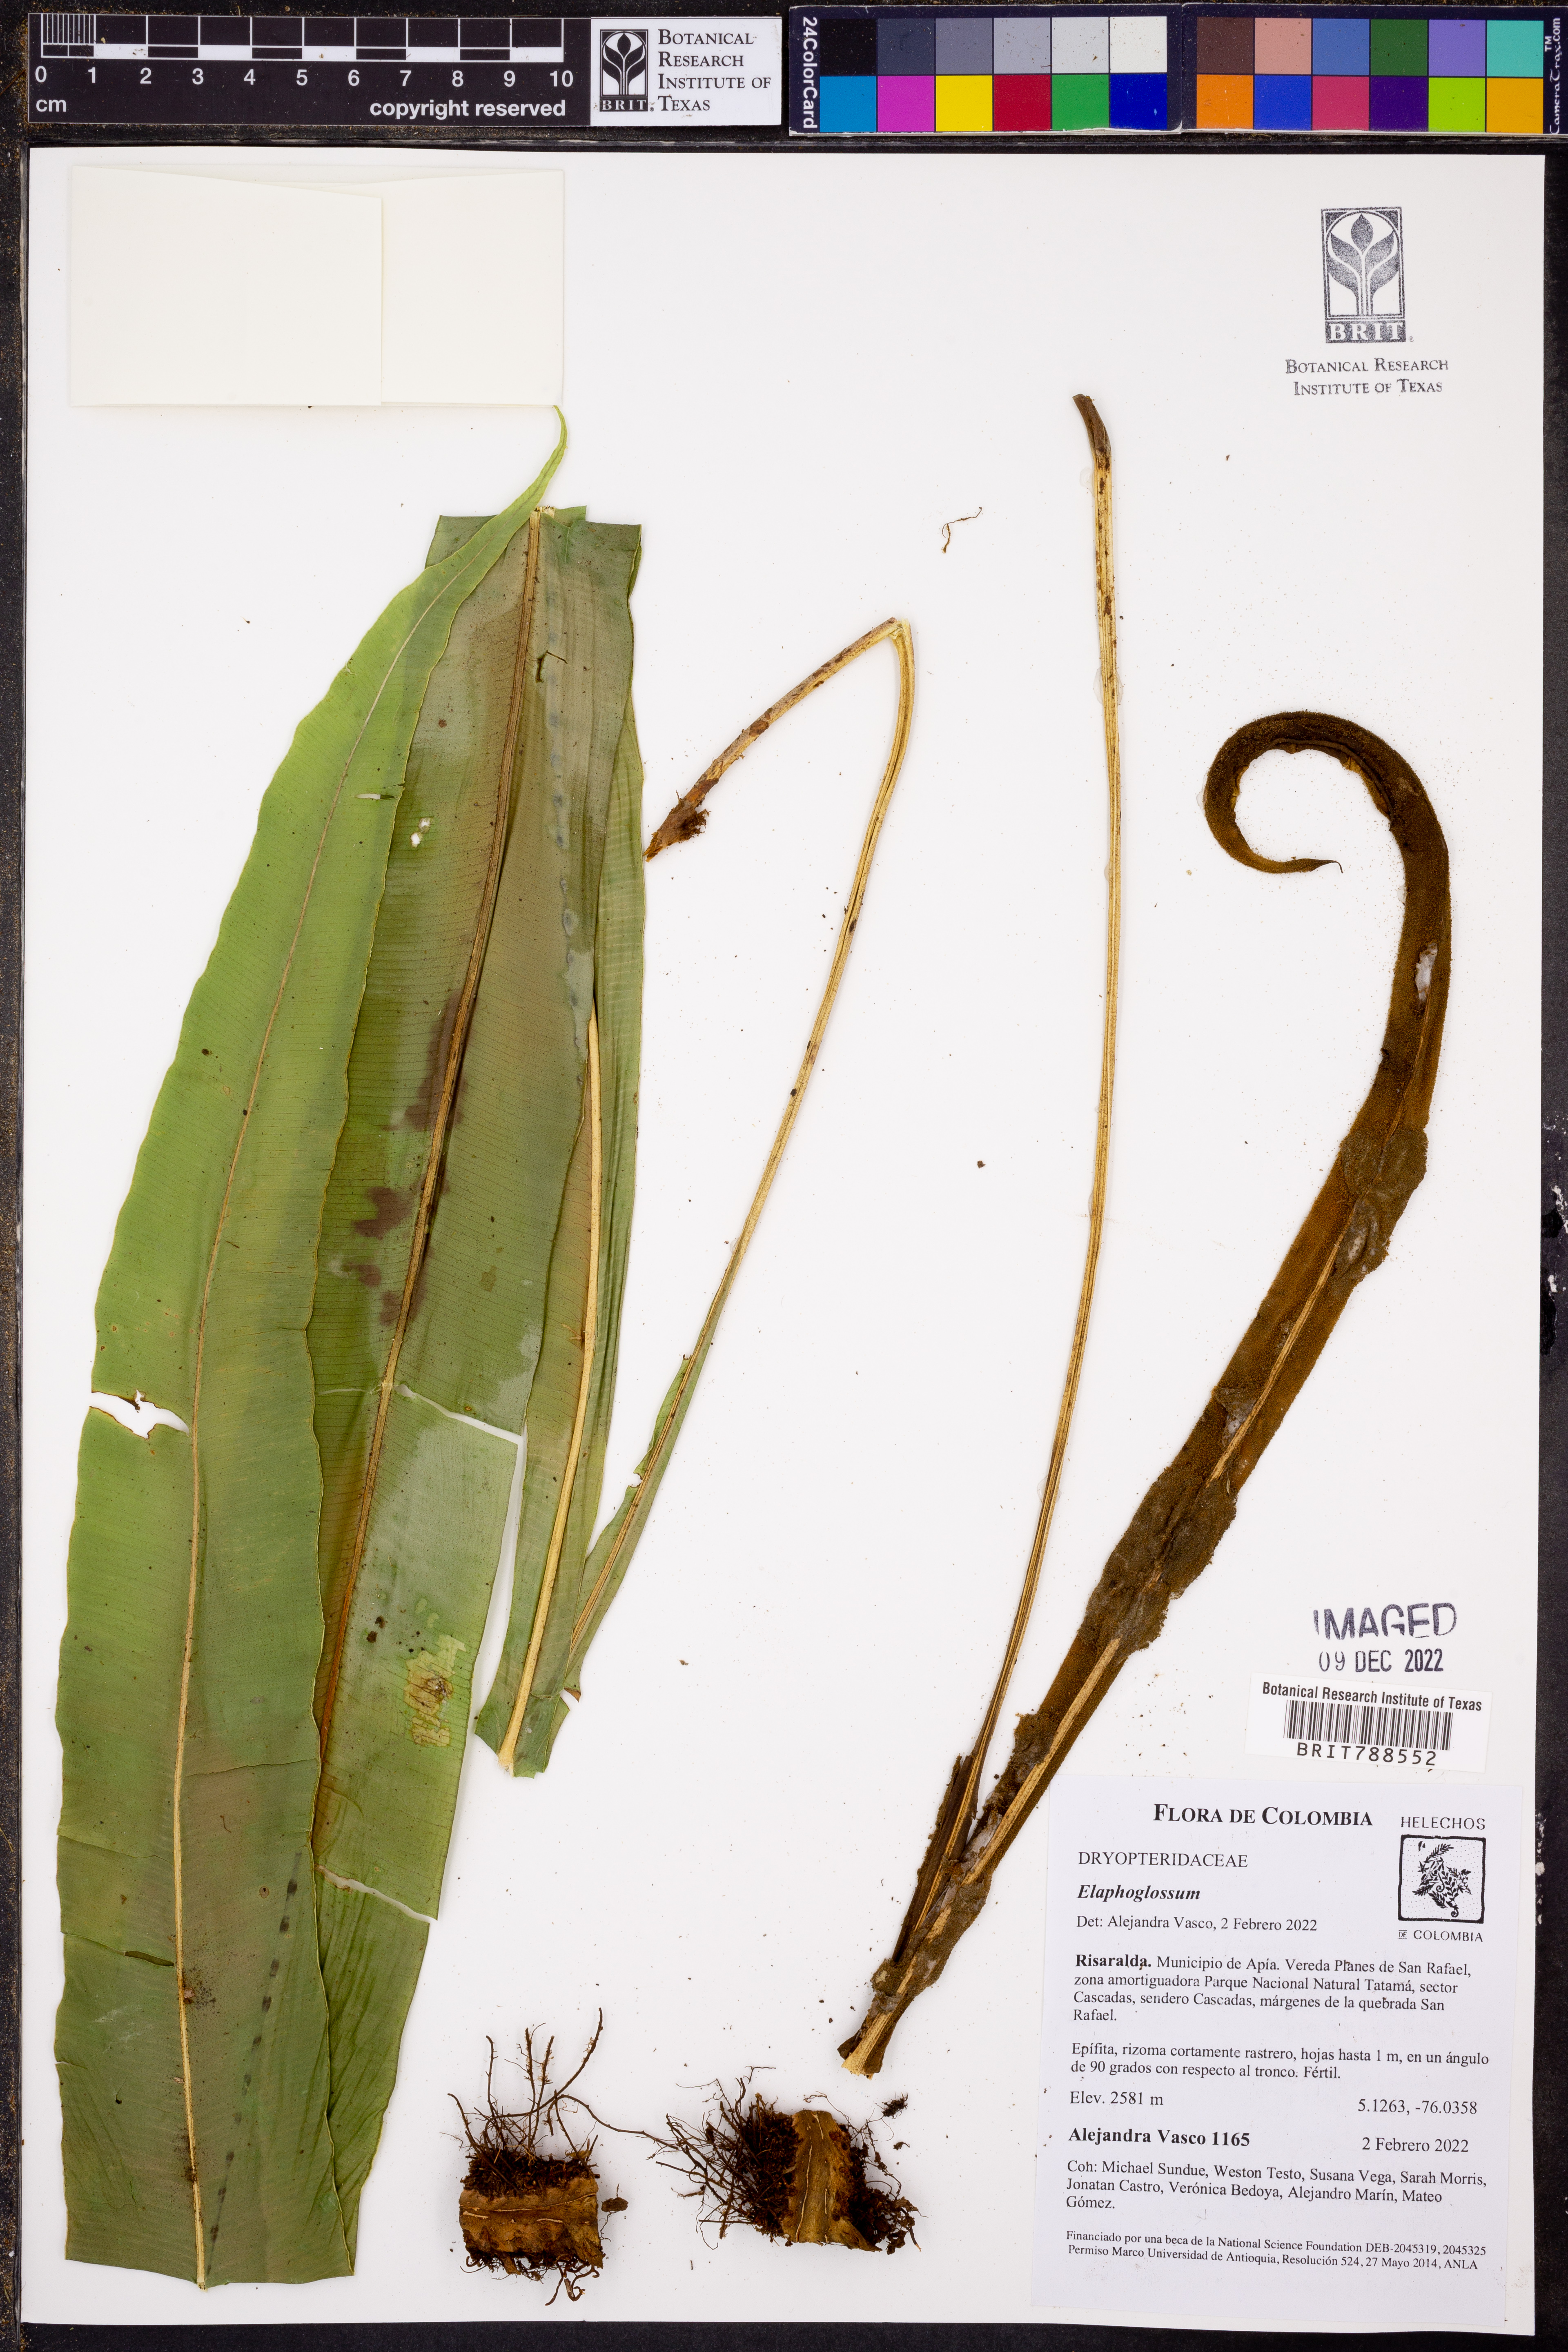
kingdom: Plantae
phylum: Tracheophyta
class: Polypodiopsida
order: Polypodiales
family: Dryopteridaceae
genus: Elaphoglossum
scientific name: Elaphoglossum
